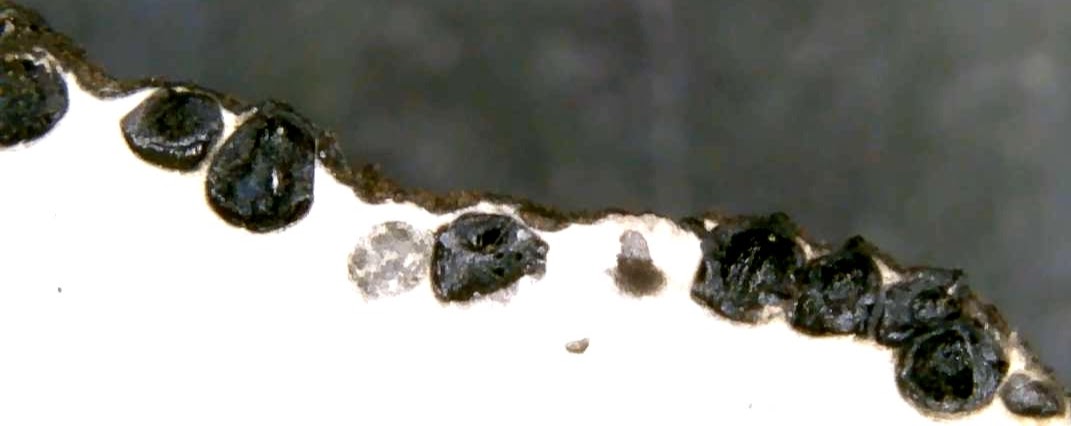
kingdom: Fungi
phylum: Ascomycota
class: Sordariomycetes
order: Xylariales
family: Xylariaceae
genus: Xylaria
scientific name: Xylaria polymorpha
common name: kølle-stødsvamp
